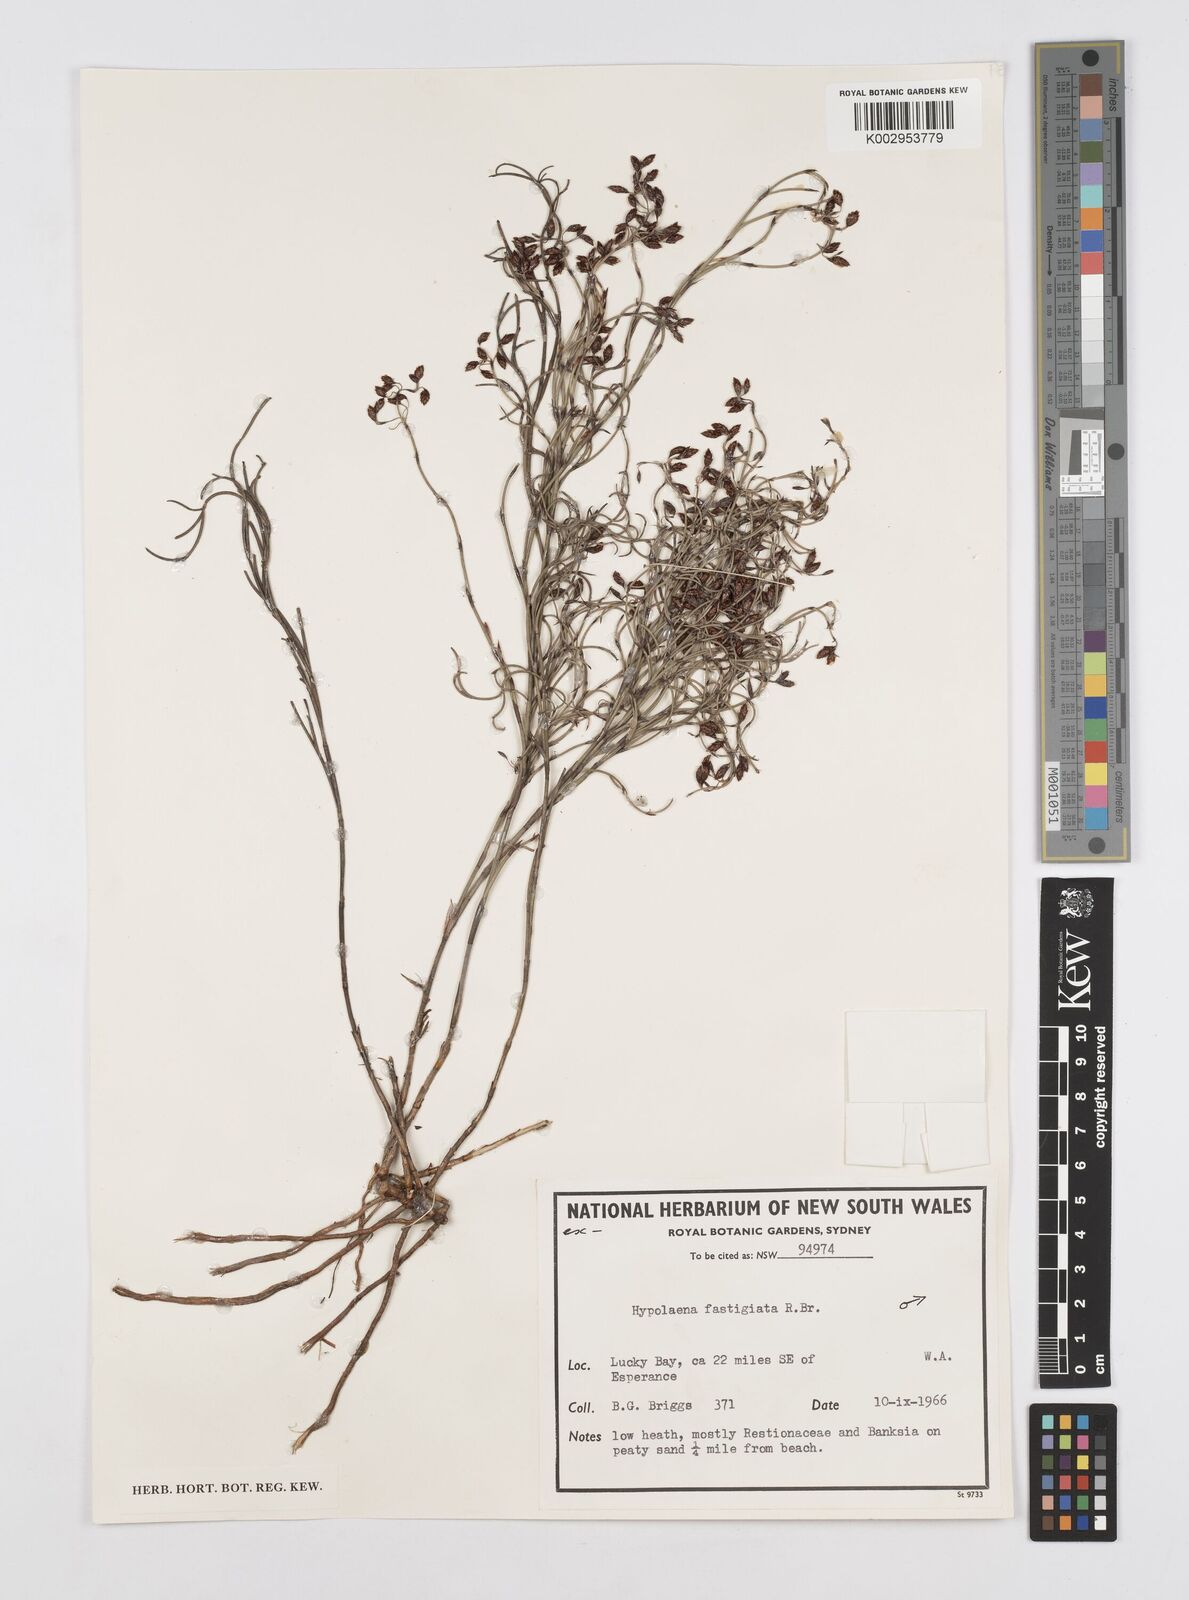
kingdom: Plantae
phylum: Tracheophyta
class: Liliopsida
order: Poales
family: Restionaceae
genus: Hypolaena
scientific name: Hypolaena fastigiata
